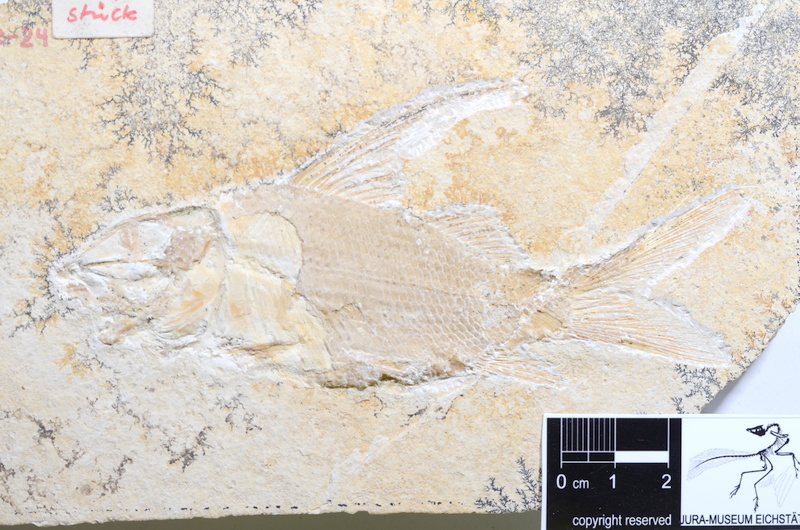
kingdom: Animalia
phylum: Chordata
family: Macrosemiidae
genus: Propterus
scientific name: Propterus microstomus
